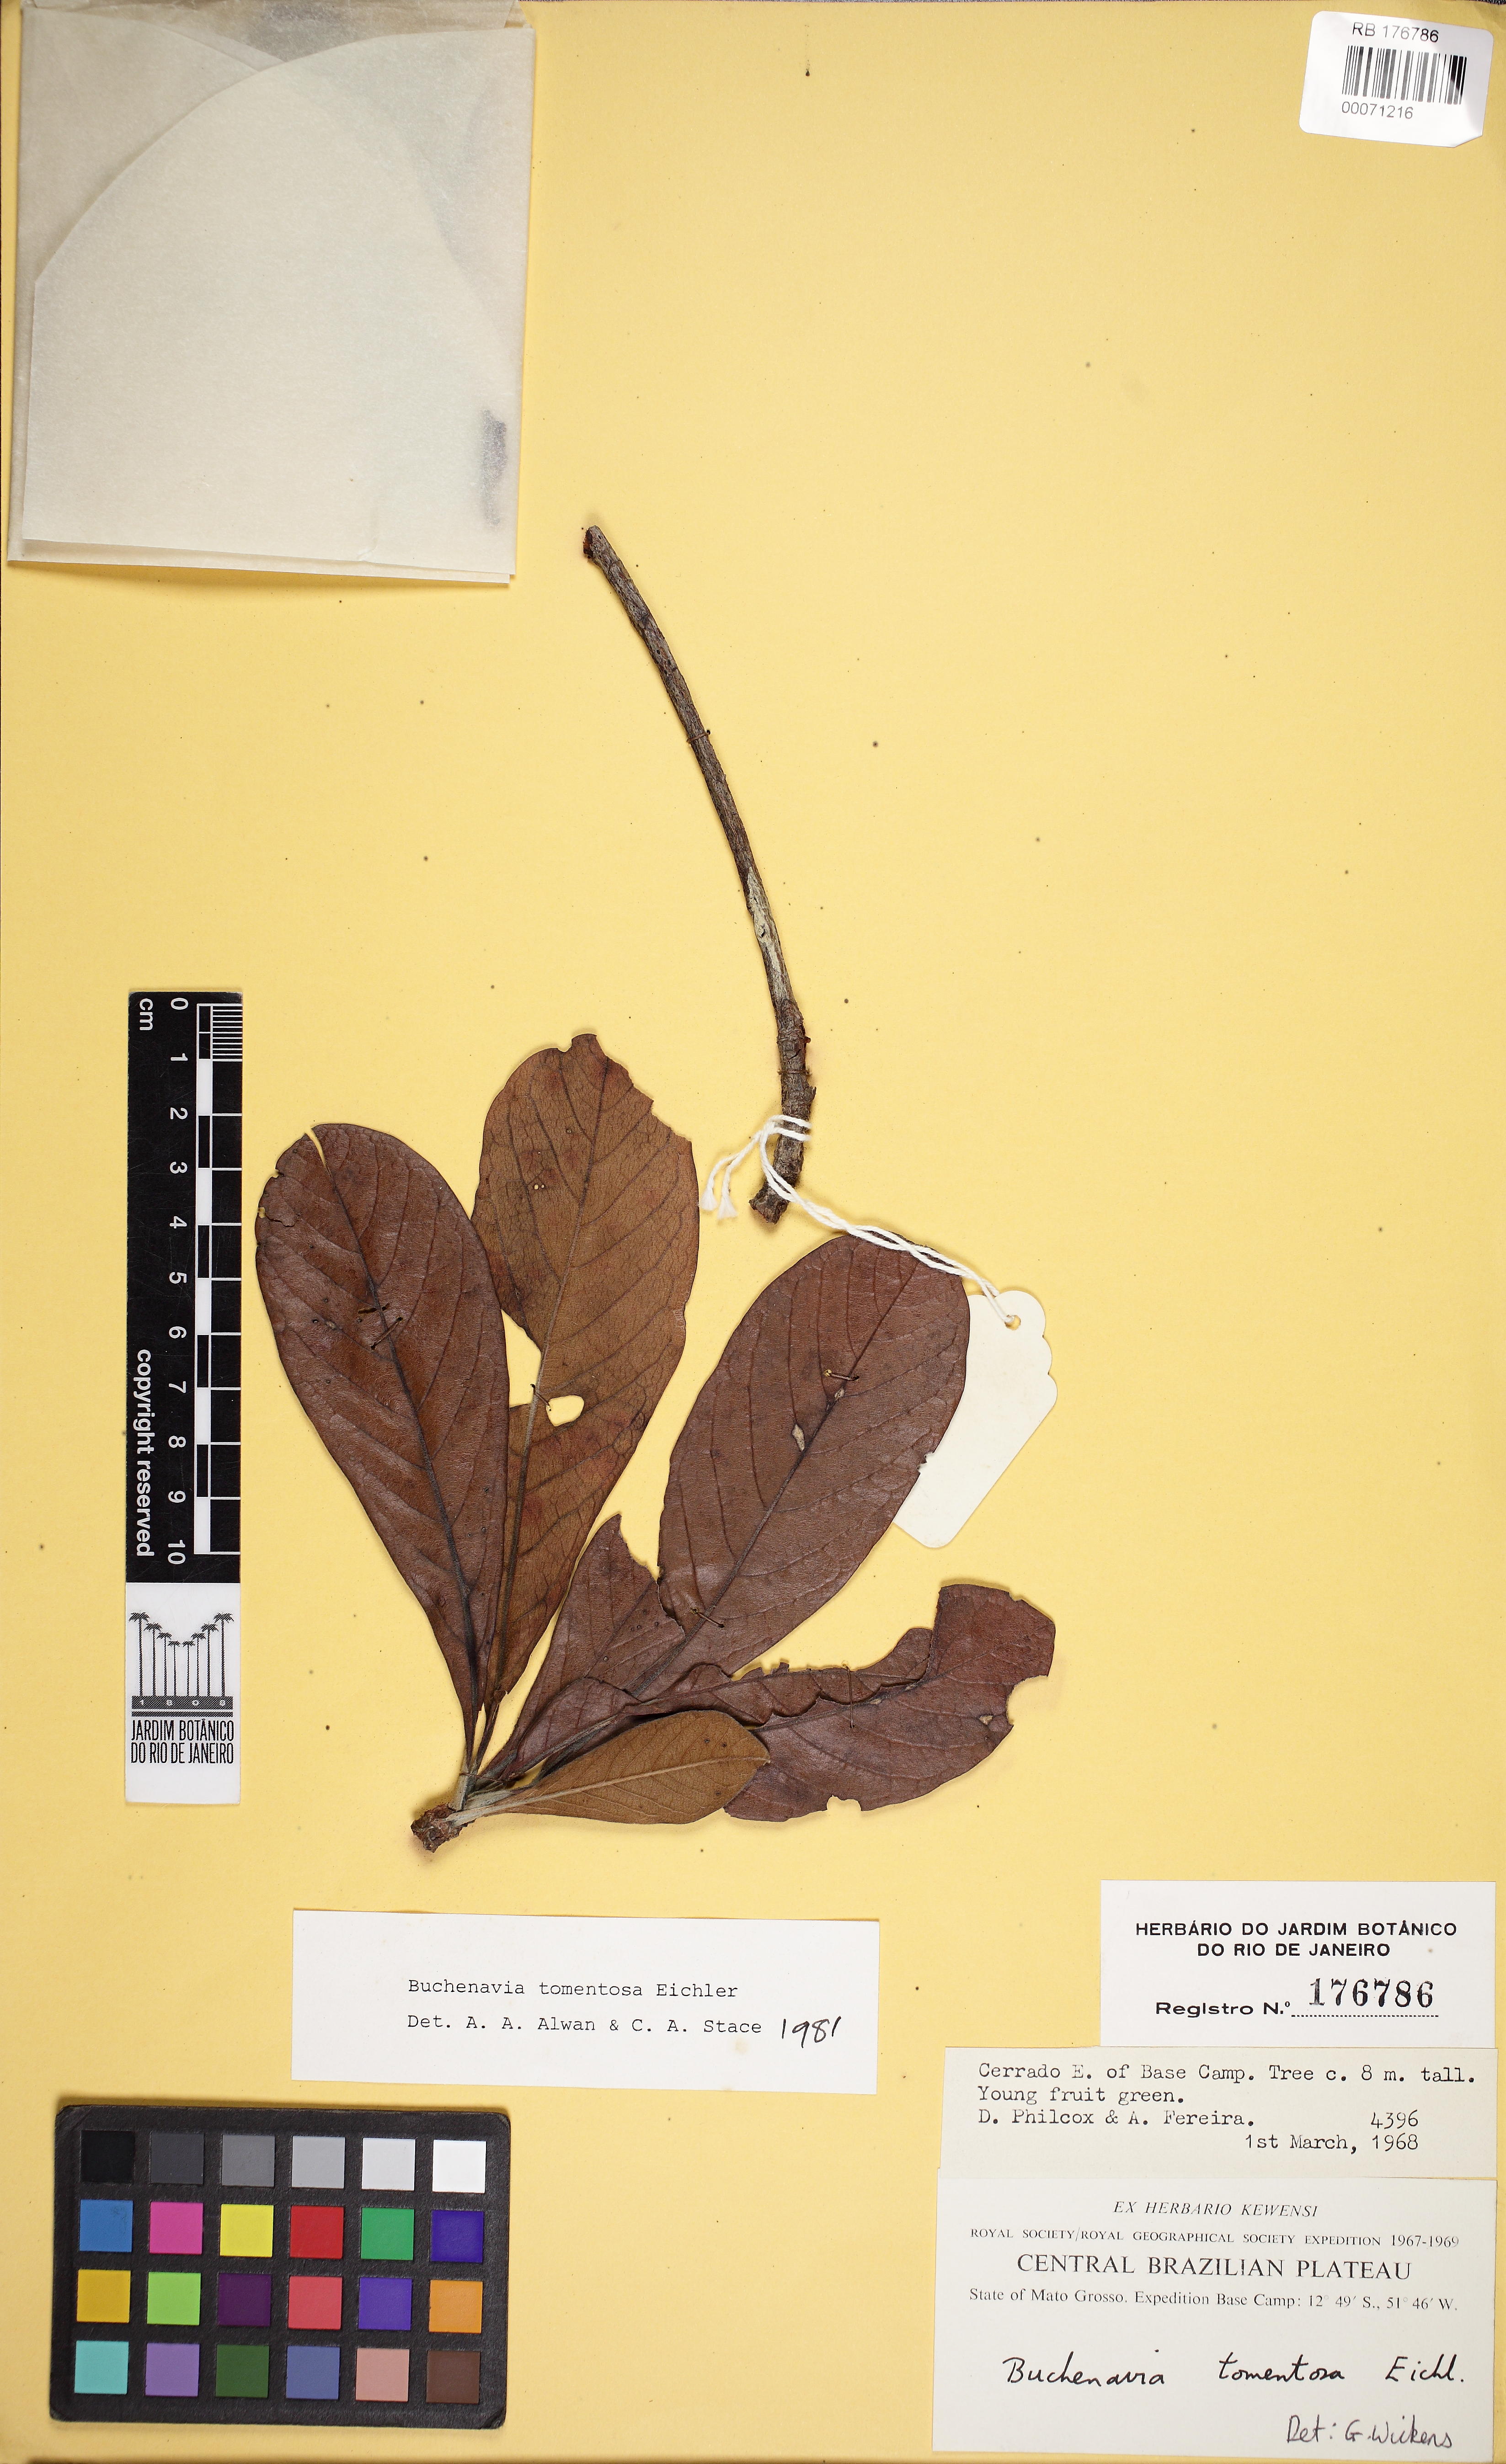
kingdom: Plantae
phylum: Tracheophyta
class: Magnoliopsida
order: Myrtales
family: Combretaceae
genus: Terminalia
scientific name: Terminalia corrugata
